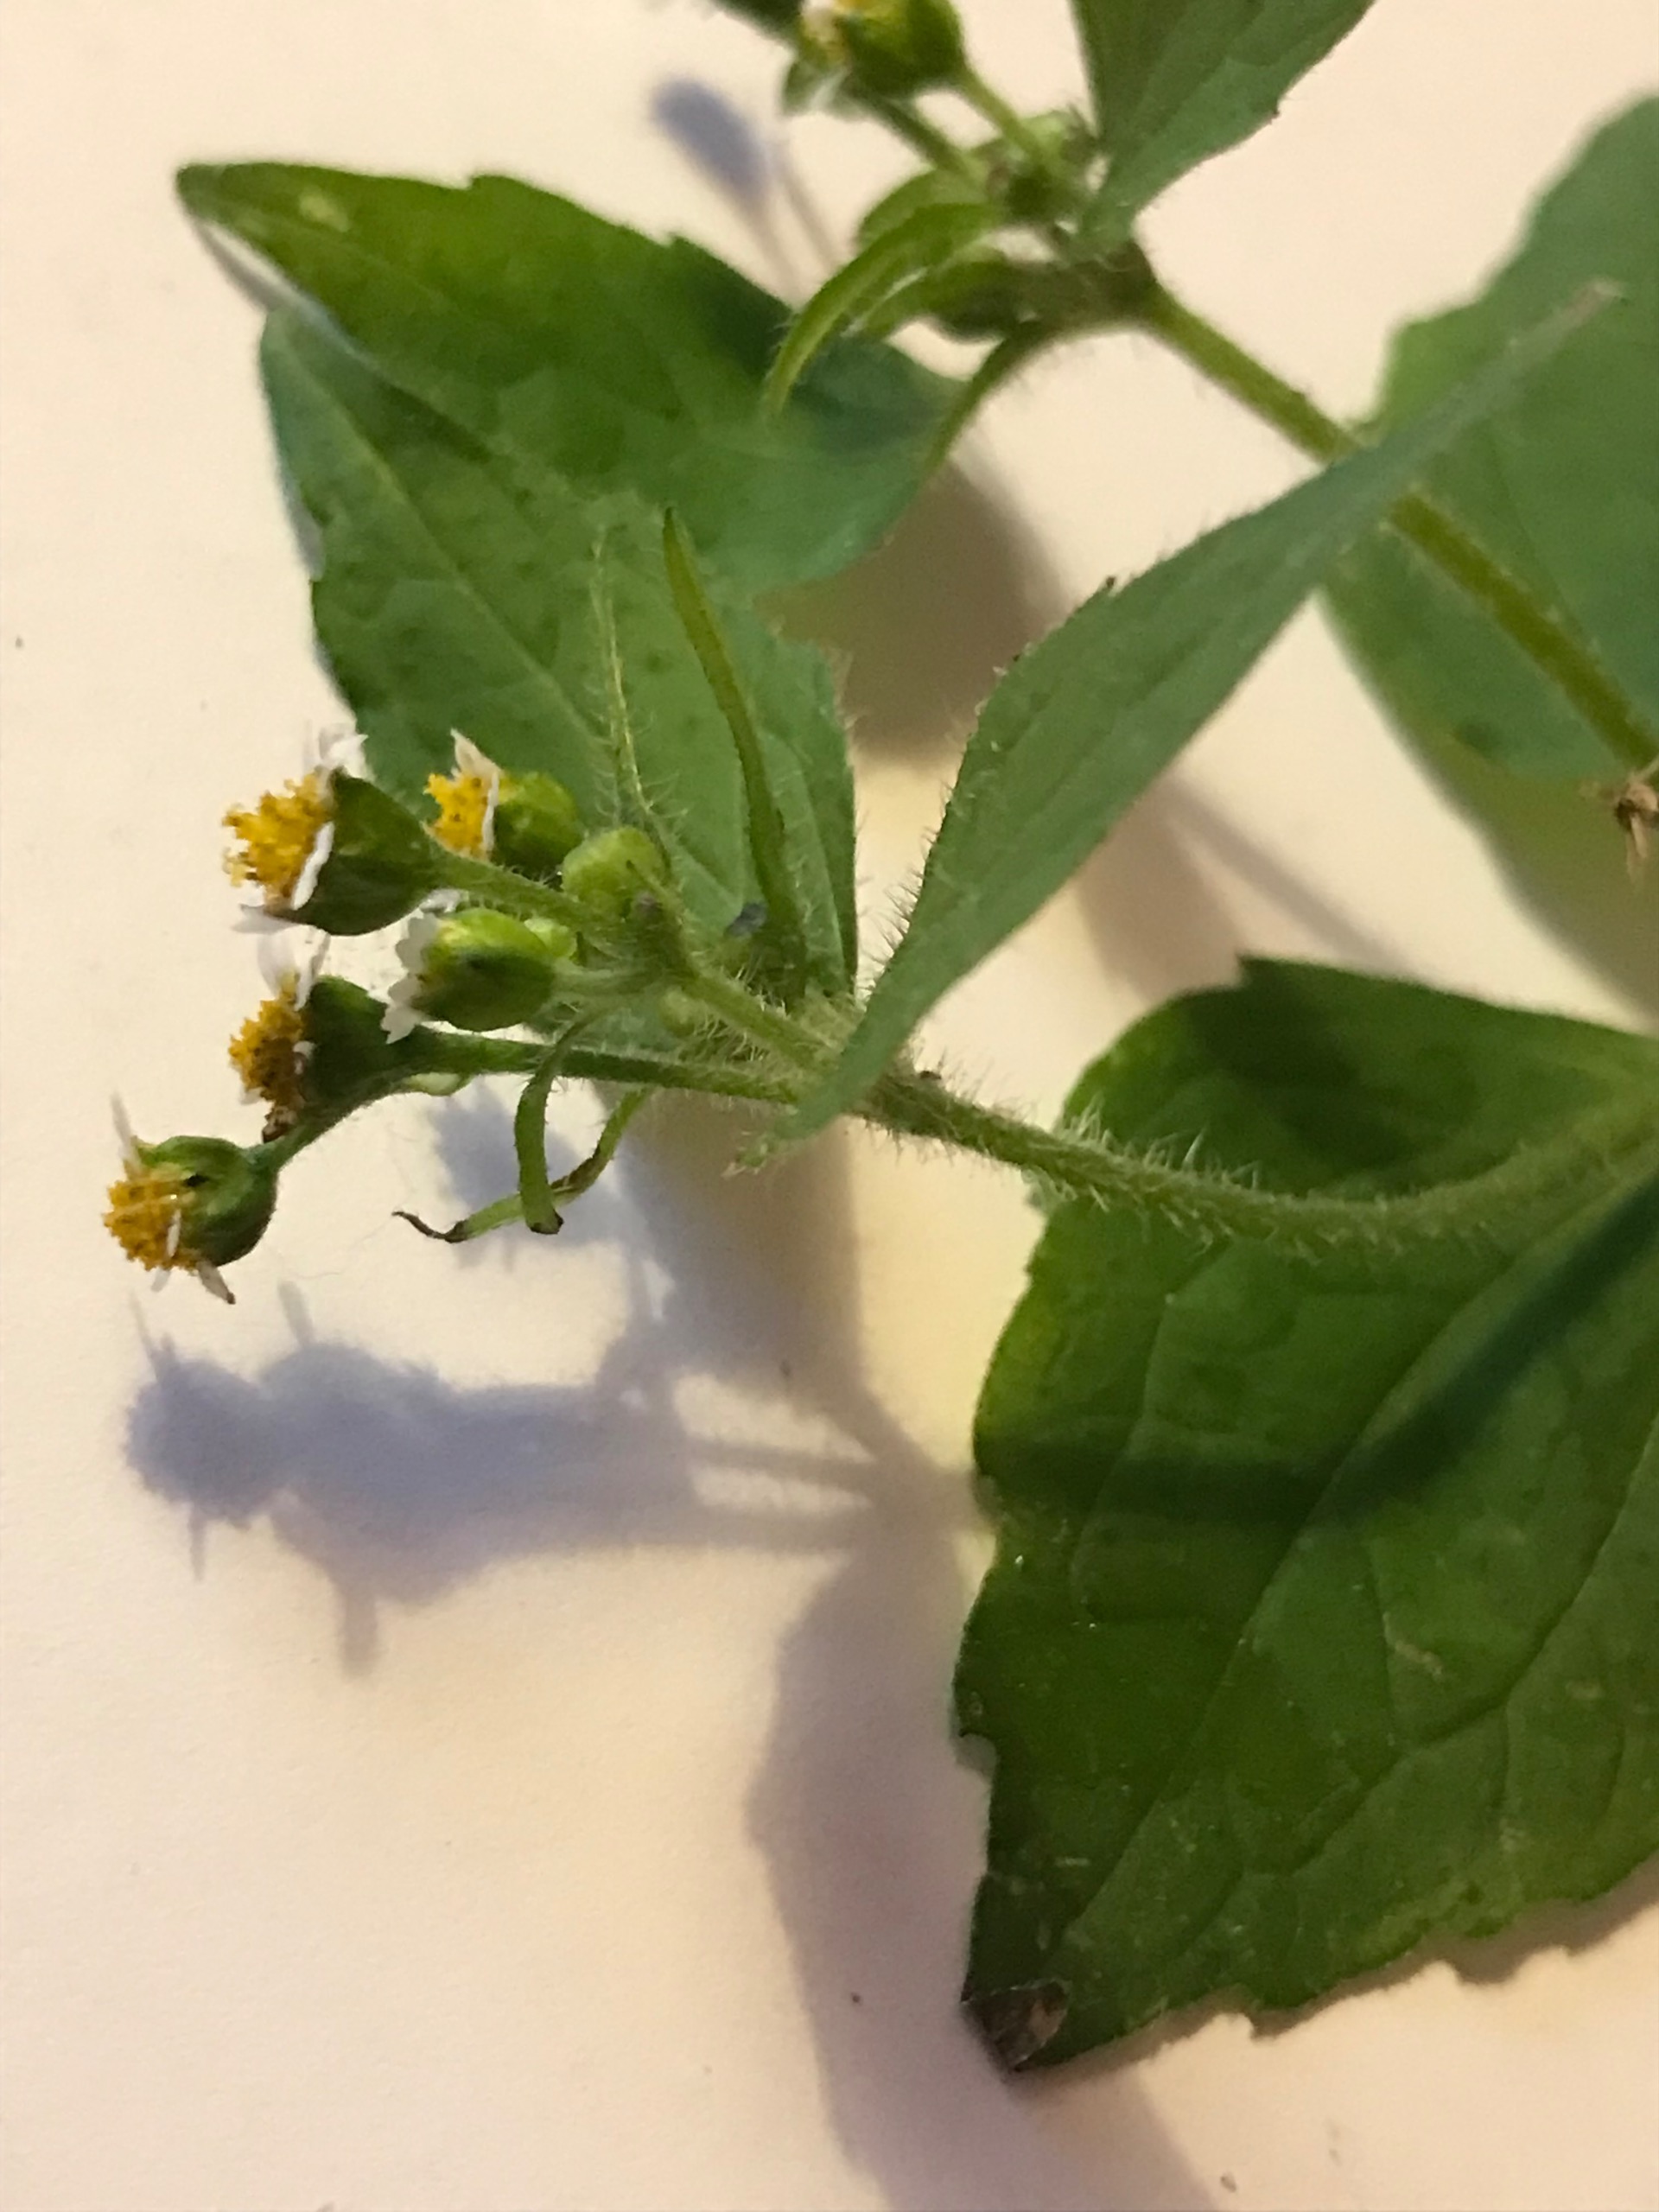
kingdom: Plantae
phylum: Tracheophyta
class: Magnoliopsida
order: Asterales
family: Asteraceae
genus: Galinsoga
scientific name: Galinsoga quadriradiata
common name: Kirtel-kortstråle
